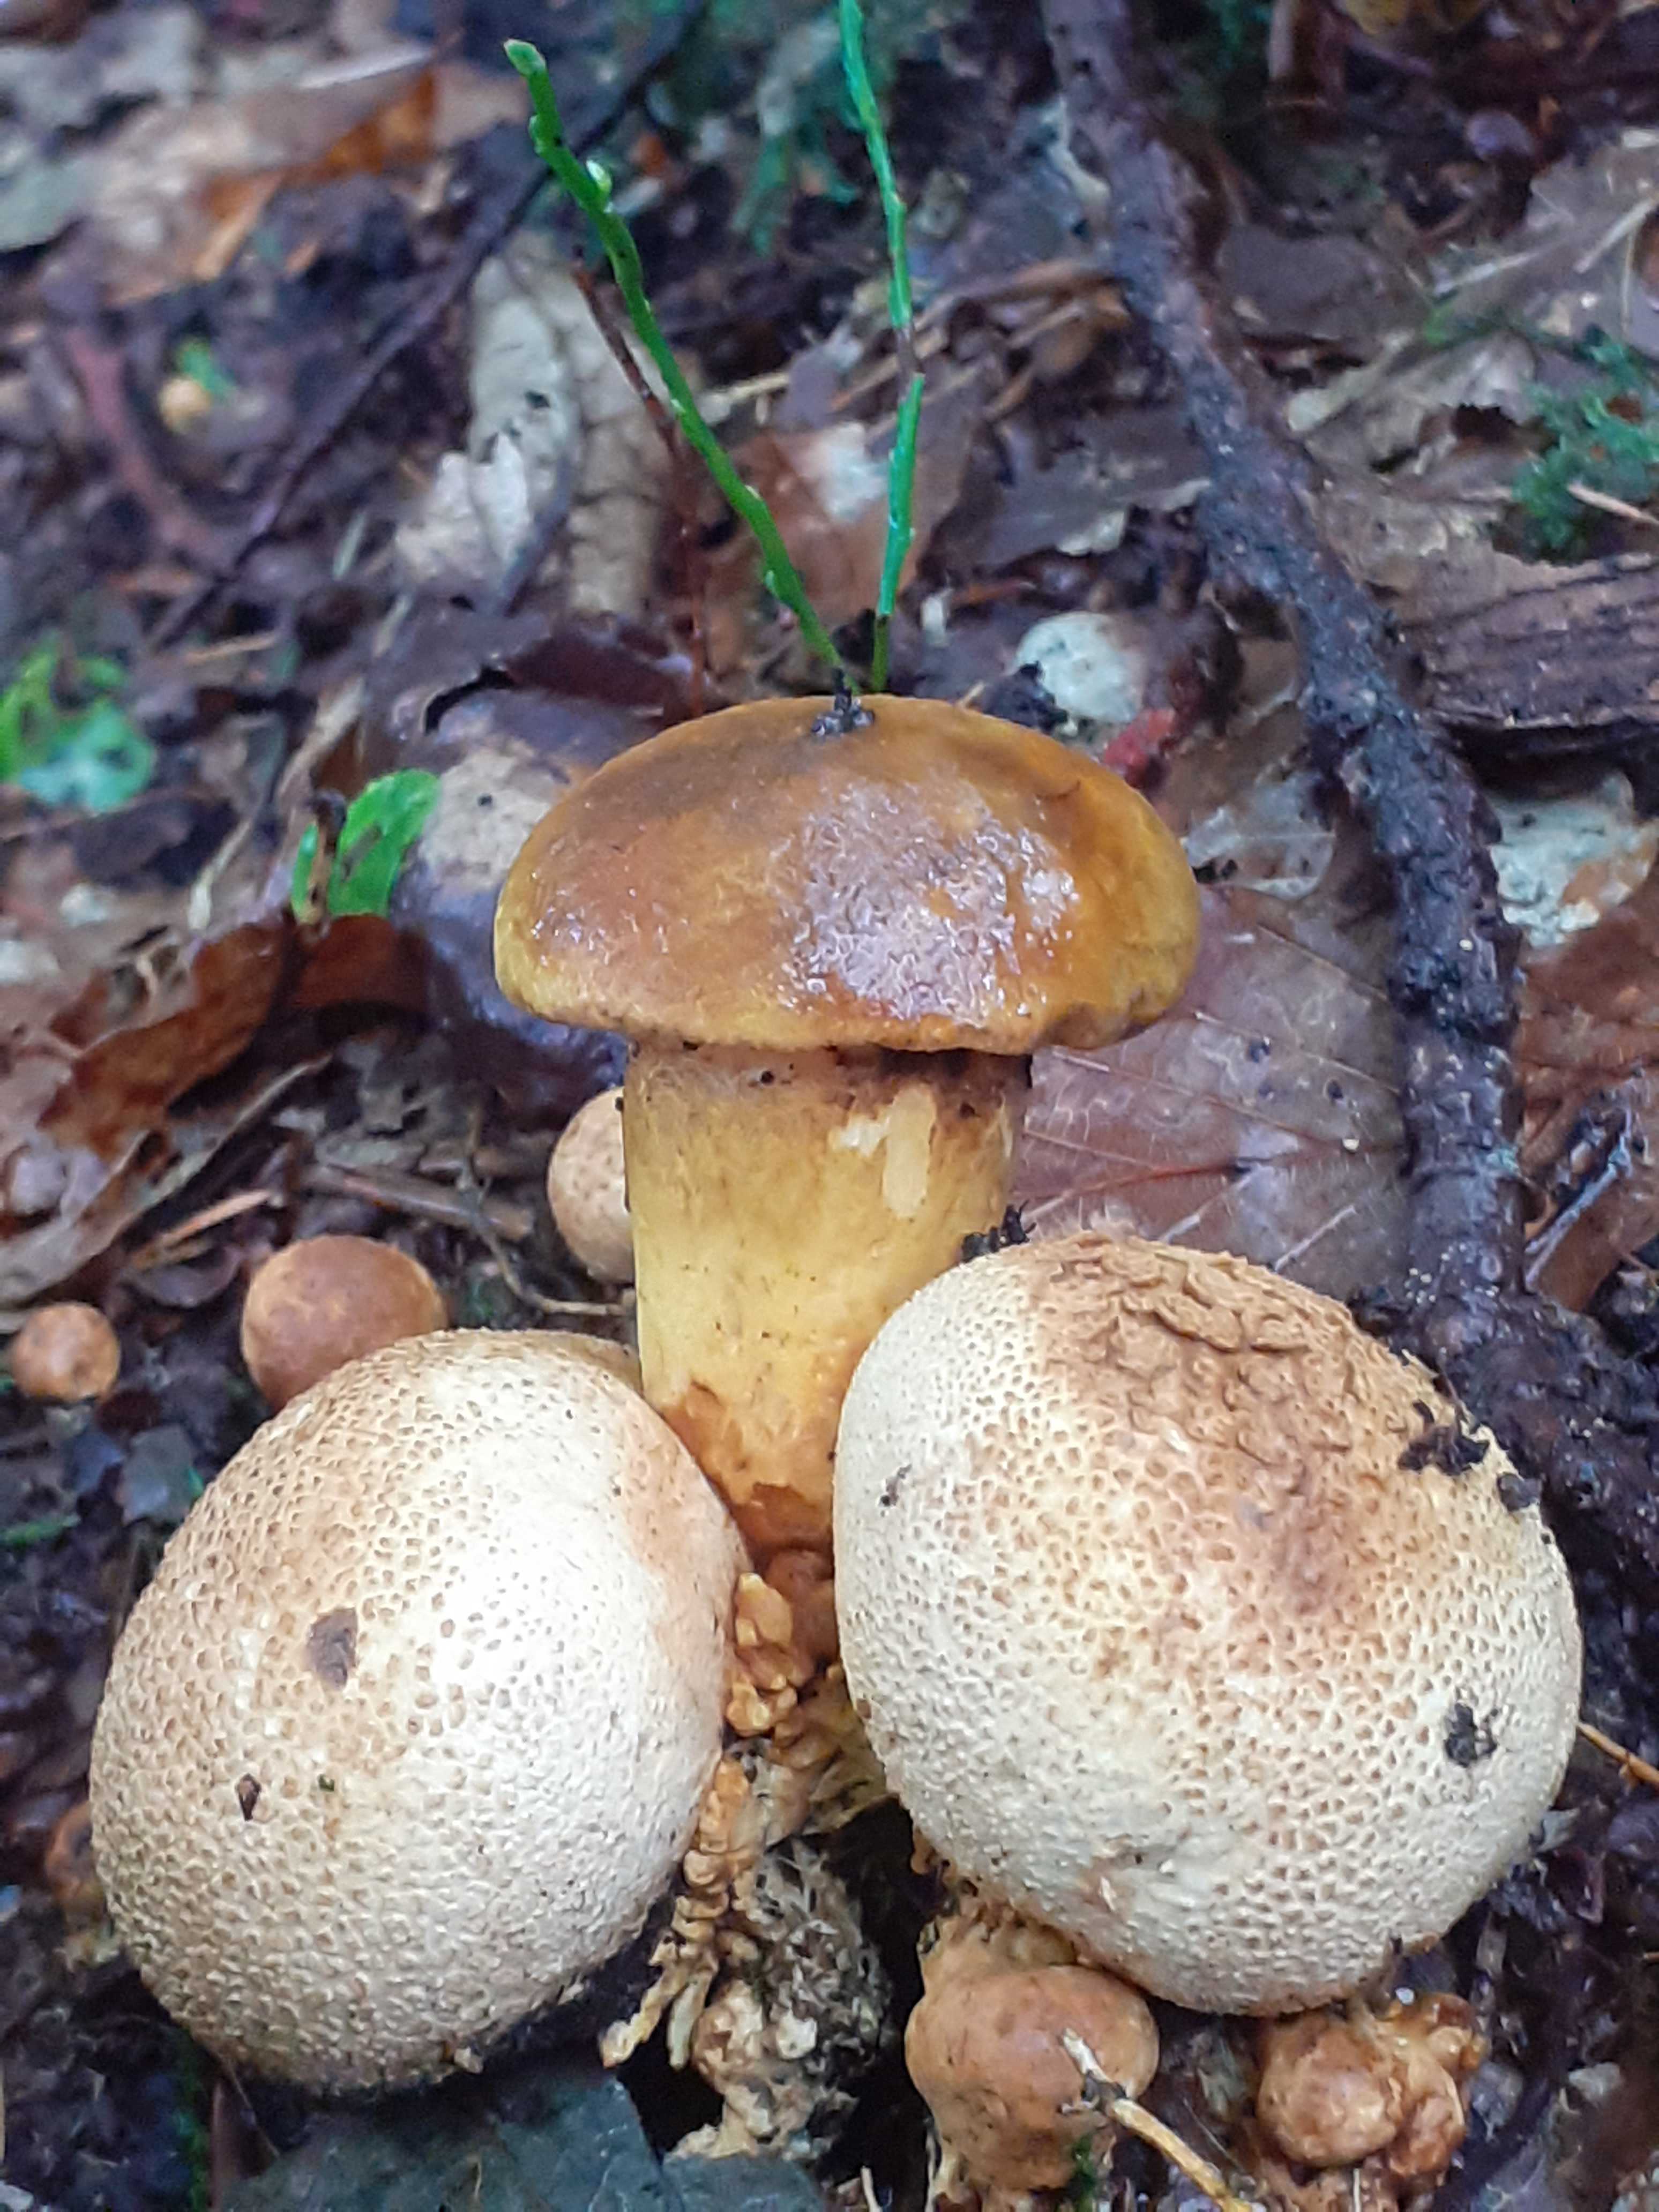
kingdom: Fungi
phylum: Basidiomycota
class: Agaricomycetes
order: Boletales
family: Boletaceae
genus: Pseudoboletus
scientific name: Pseudoboletus parasiticus
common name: snyltende rørhat
